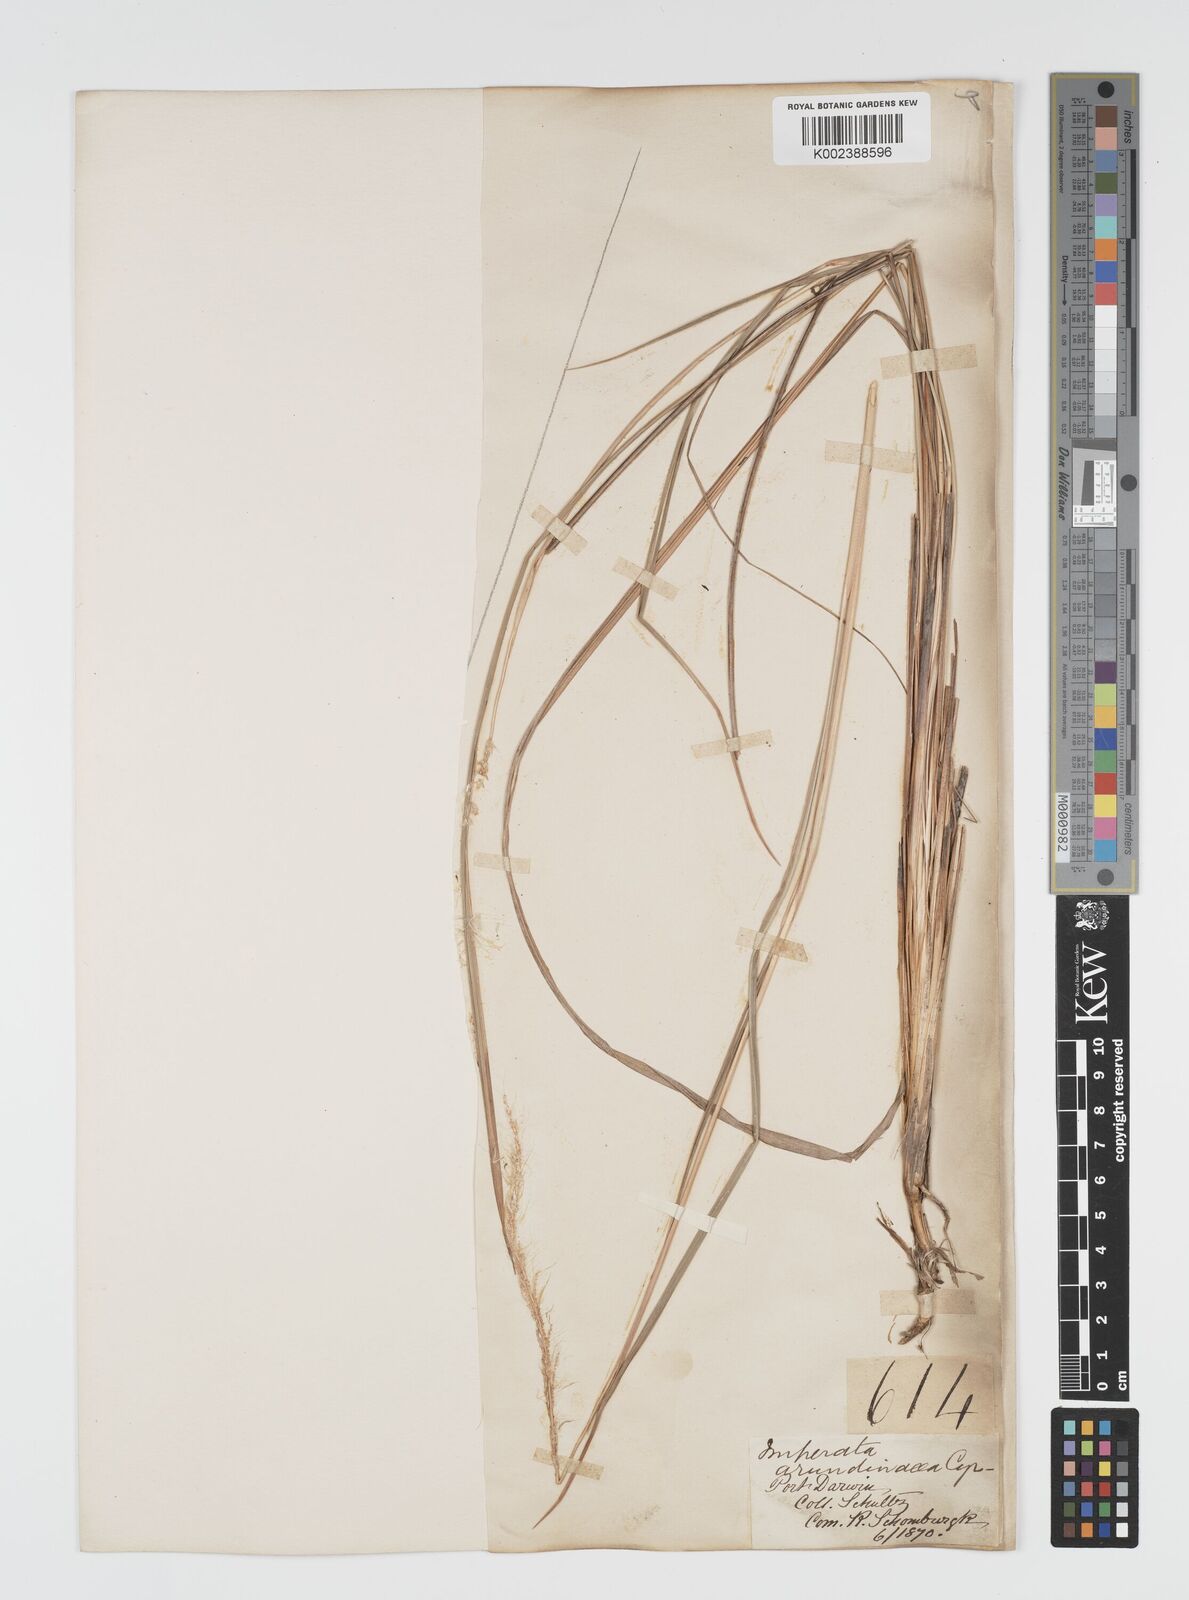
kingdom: Plantae
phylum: Tracheophyta
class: Liliopsida
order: Poales
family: Poaceae
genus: Imperata
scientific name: Imperata cylindrica
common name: Cogongrass
